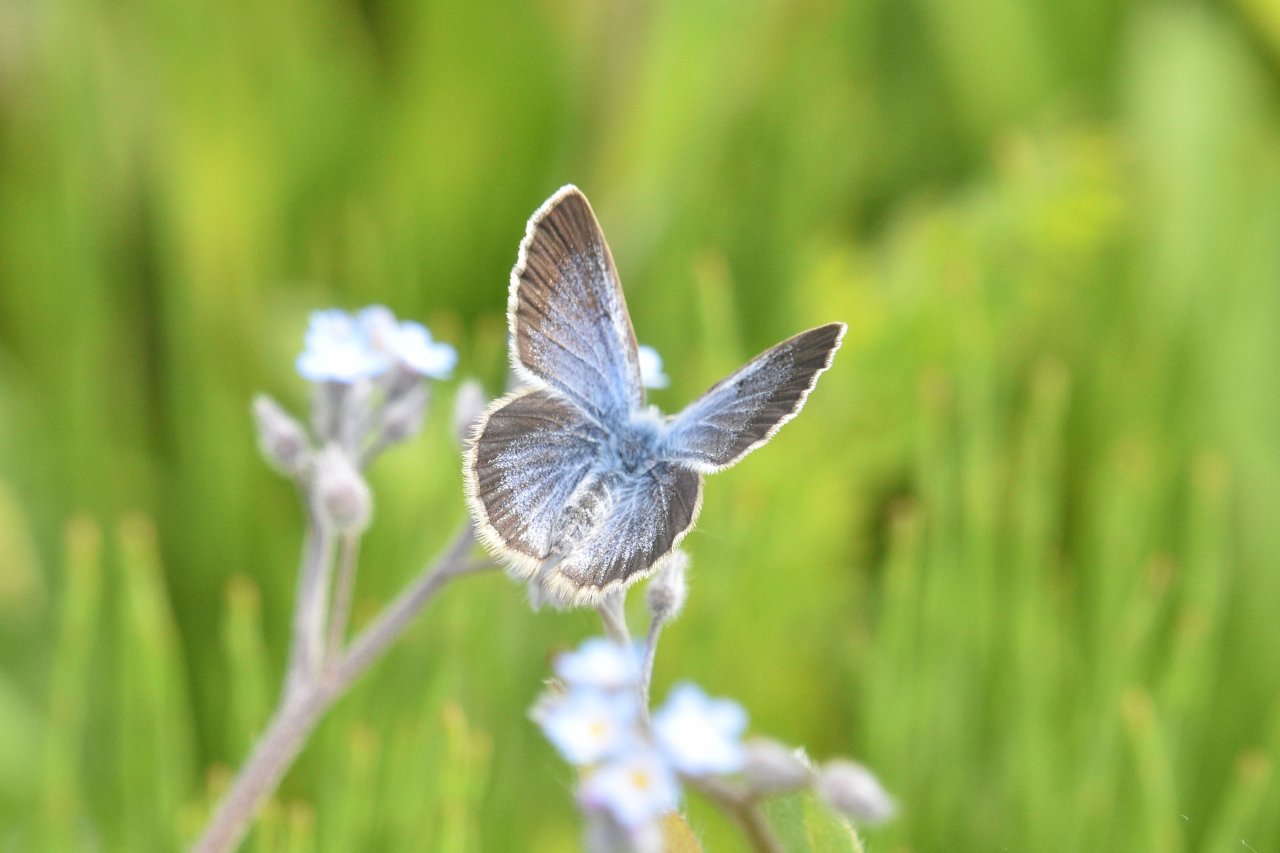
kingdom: Animalia
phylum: Arthropoda
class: Insecta
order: Lepidoptera
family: Lycaenidae
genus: Glaucopsyche
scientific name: Glaucopsyche lygdamus
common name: Silvery Blue
